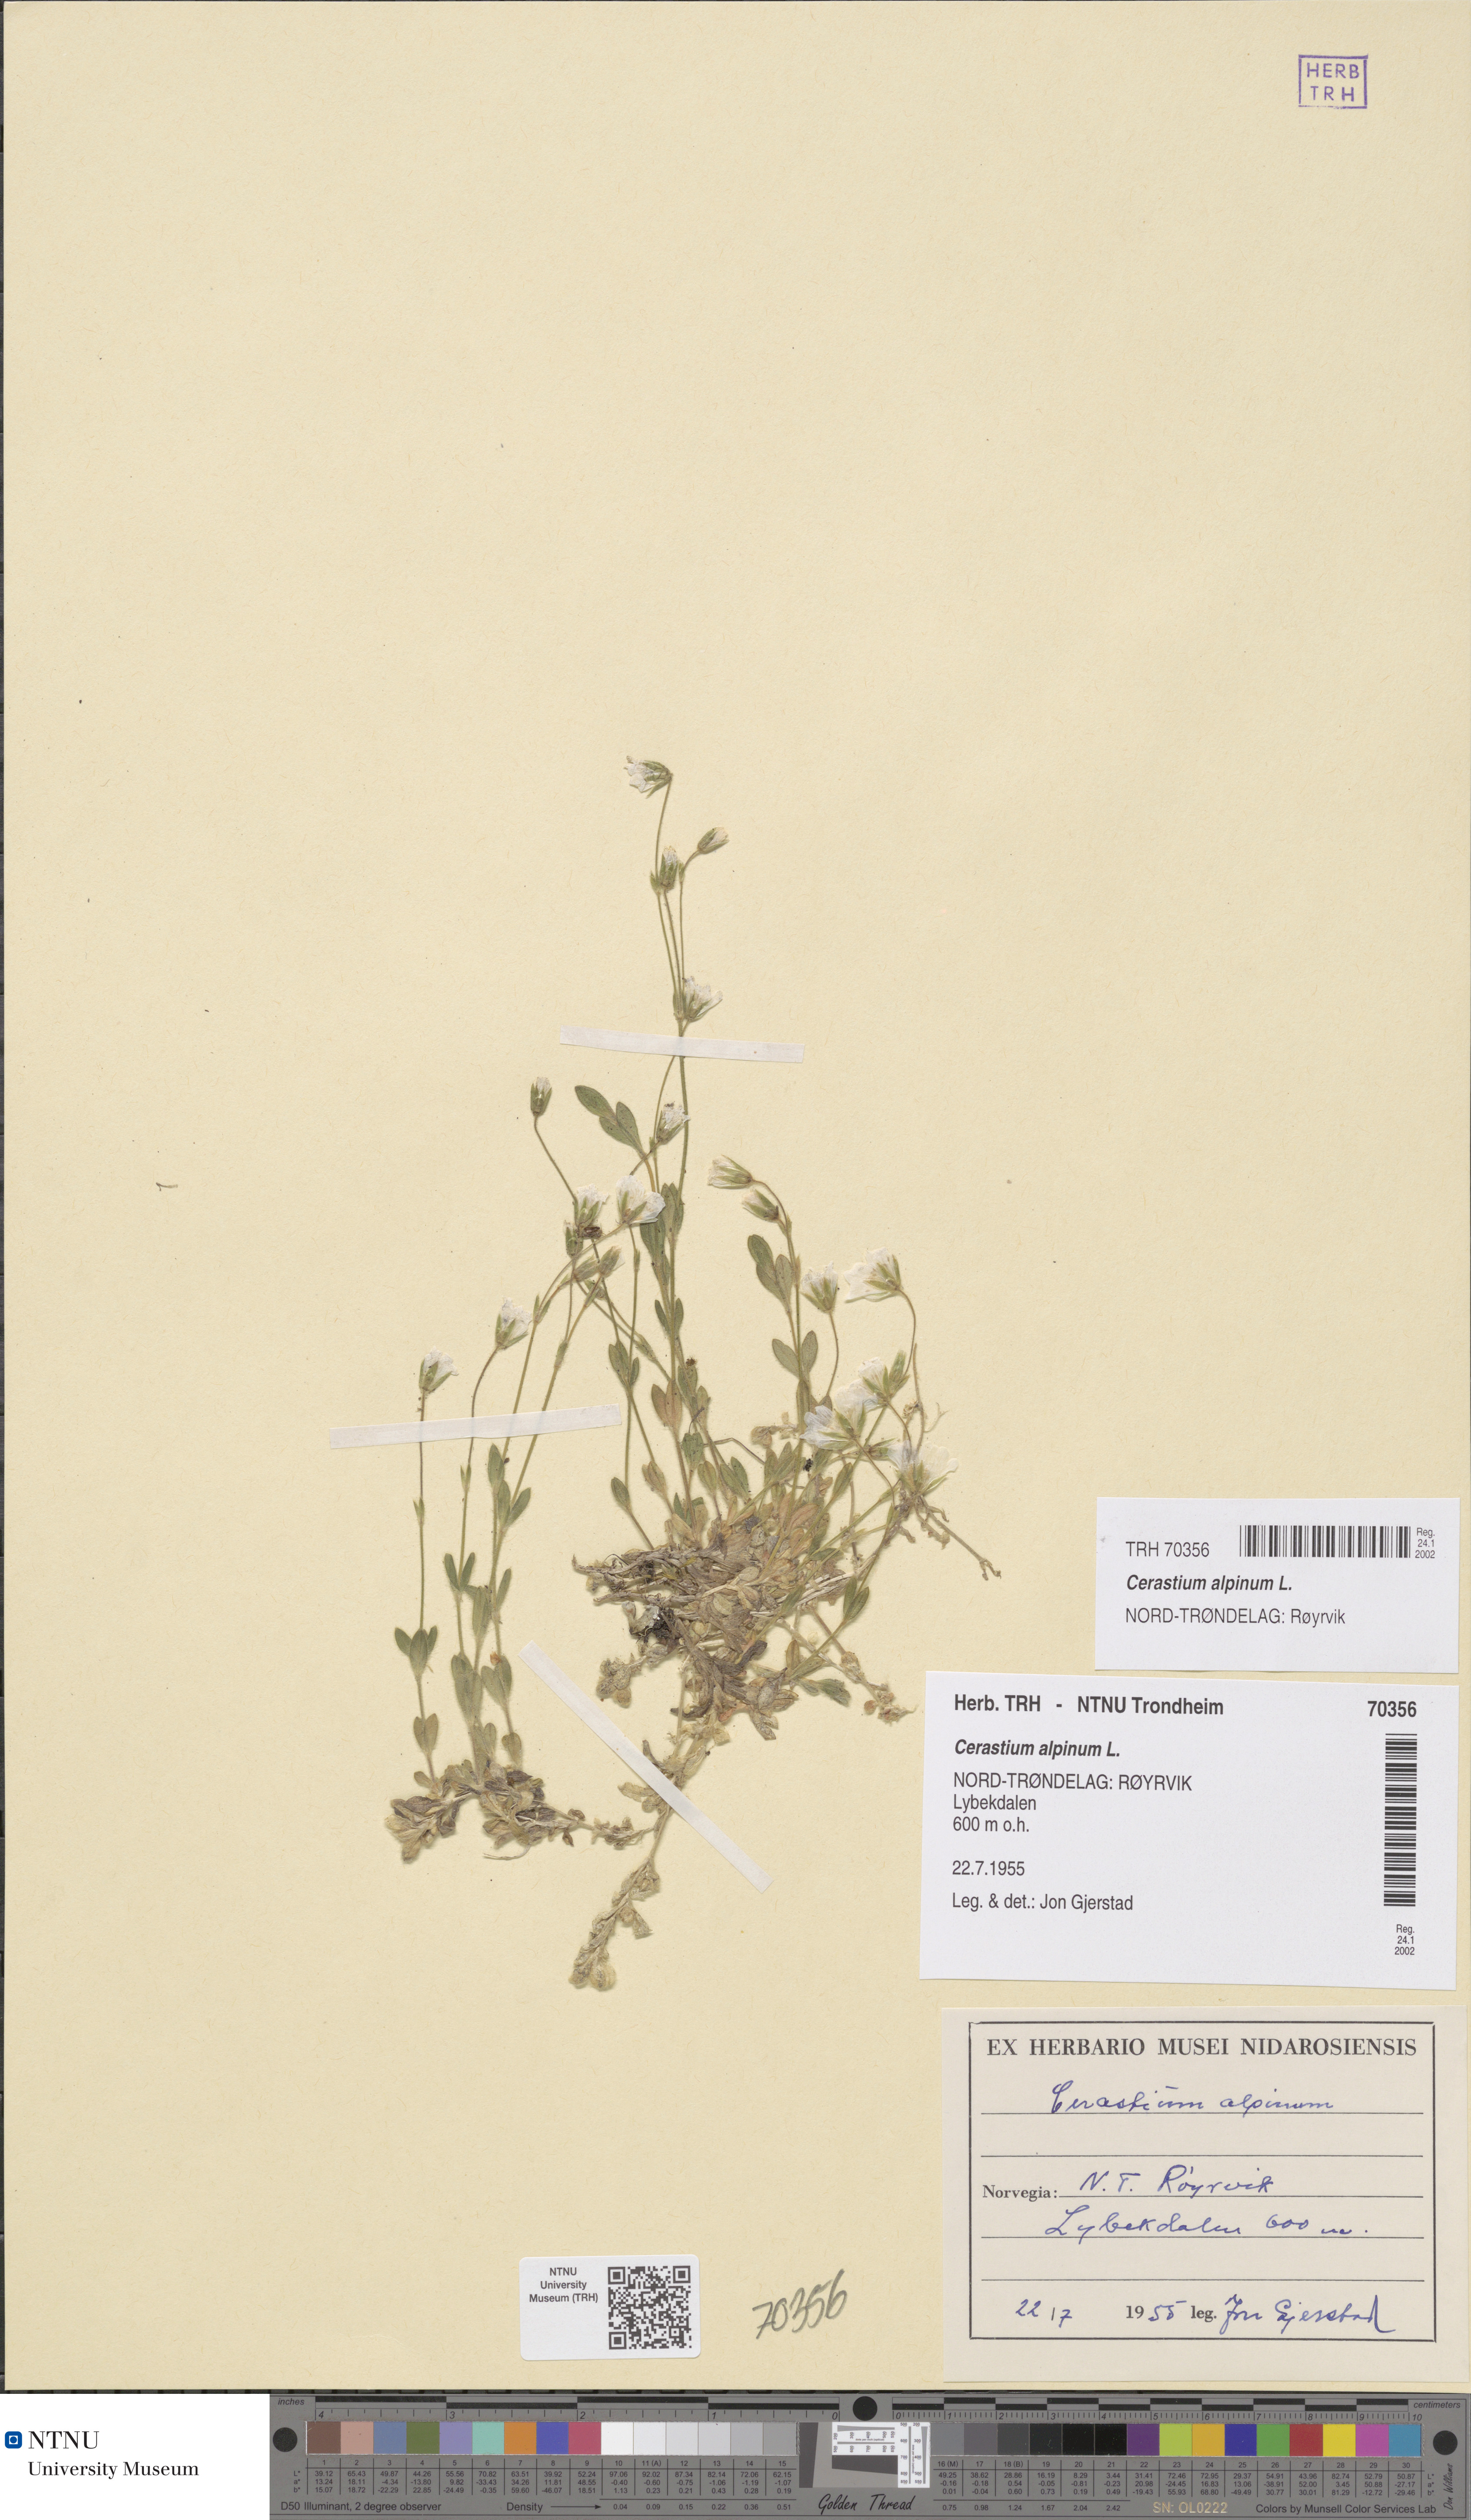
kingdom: Plantae
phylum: Tracheophyta
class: Magnoliopsida
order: Caryophyllales
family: Caryophyllaceae
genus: Cerastium
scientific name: Cerastium alpinum
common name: Alpine mouse-ear
